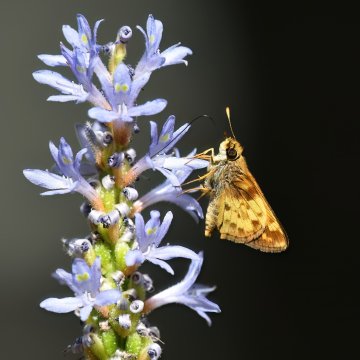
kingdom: Animalia
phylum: Arthropoda
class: Insecta
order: Lepidoptera
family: Hesperiidae
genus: Lon
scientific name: Lon zabulon
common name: Zabulon Skipper
